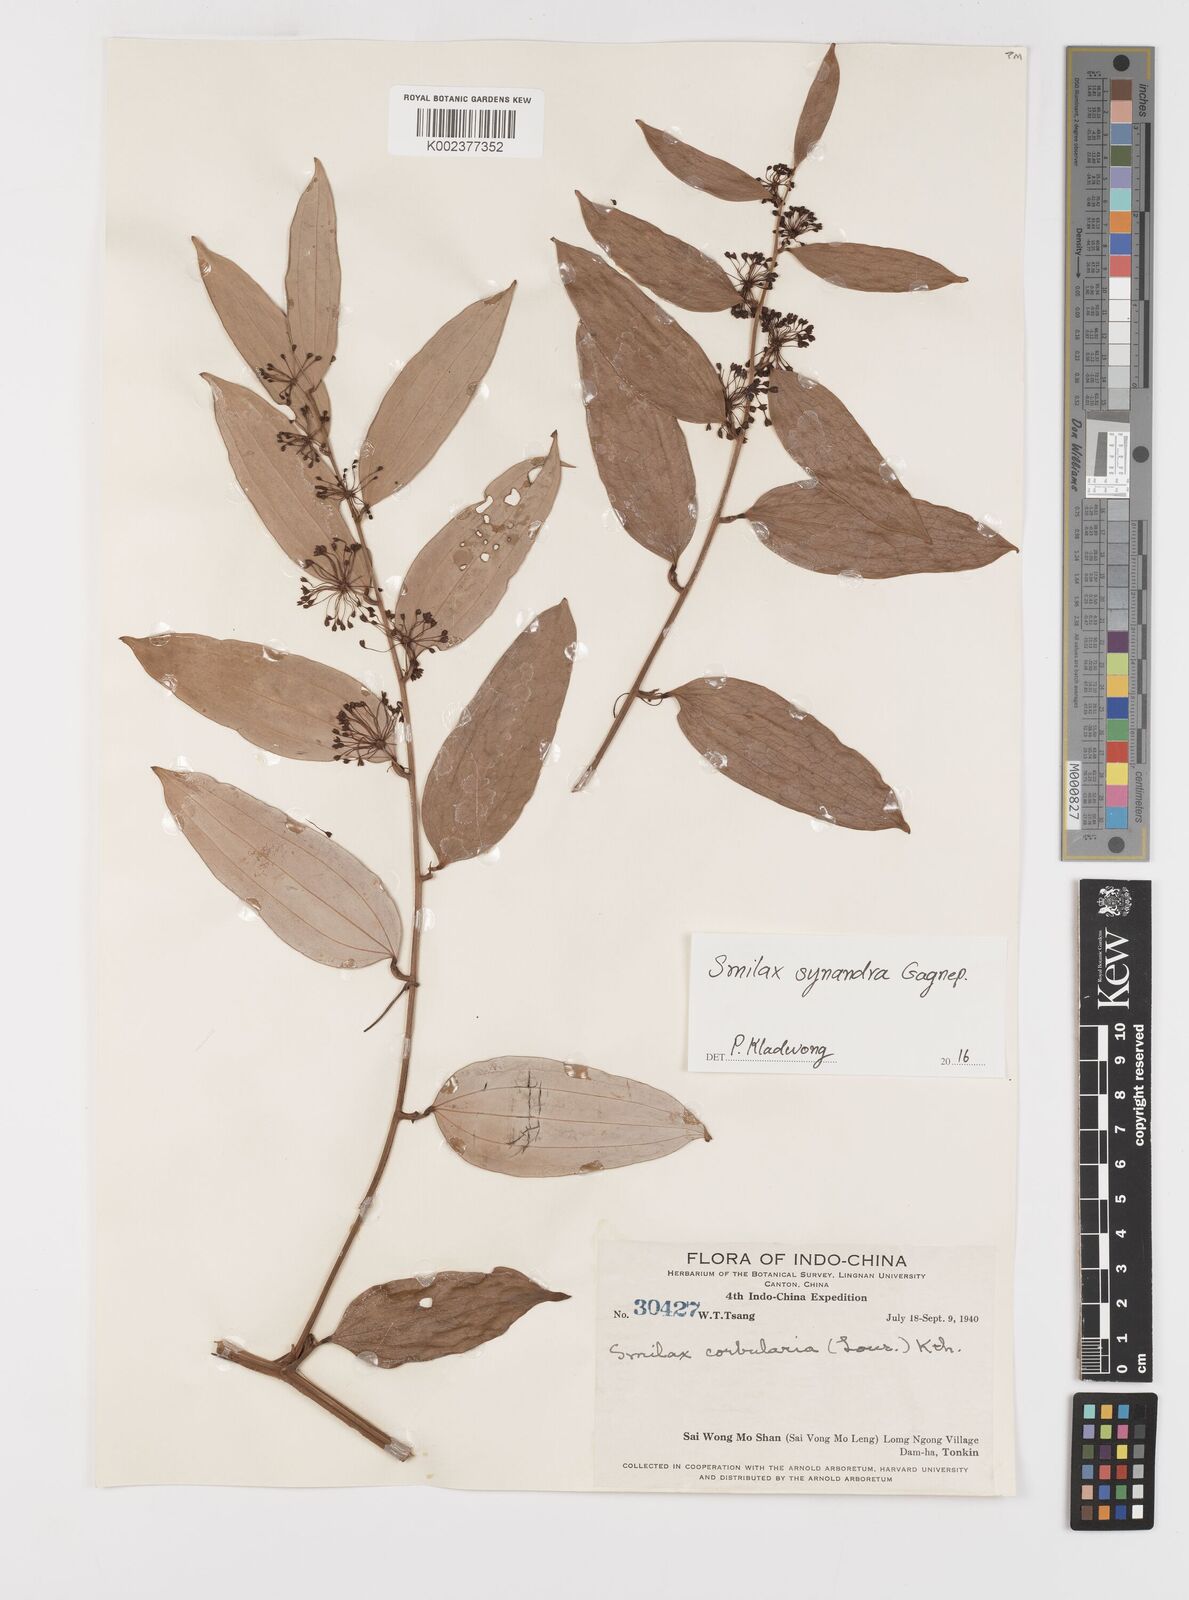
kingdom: Plantae
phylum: Tracheophyta
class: Liliopsida
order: Liliales
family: Smilacaceae
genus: Smilax
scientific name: Smilax synandra
